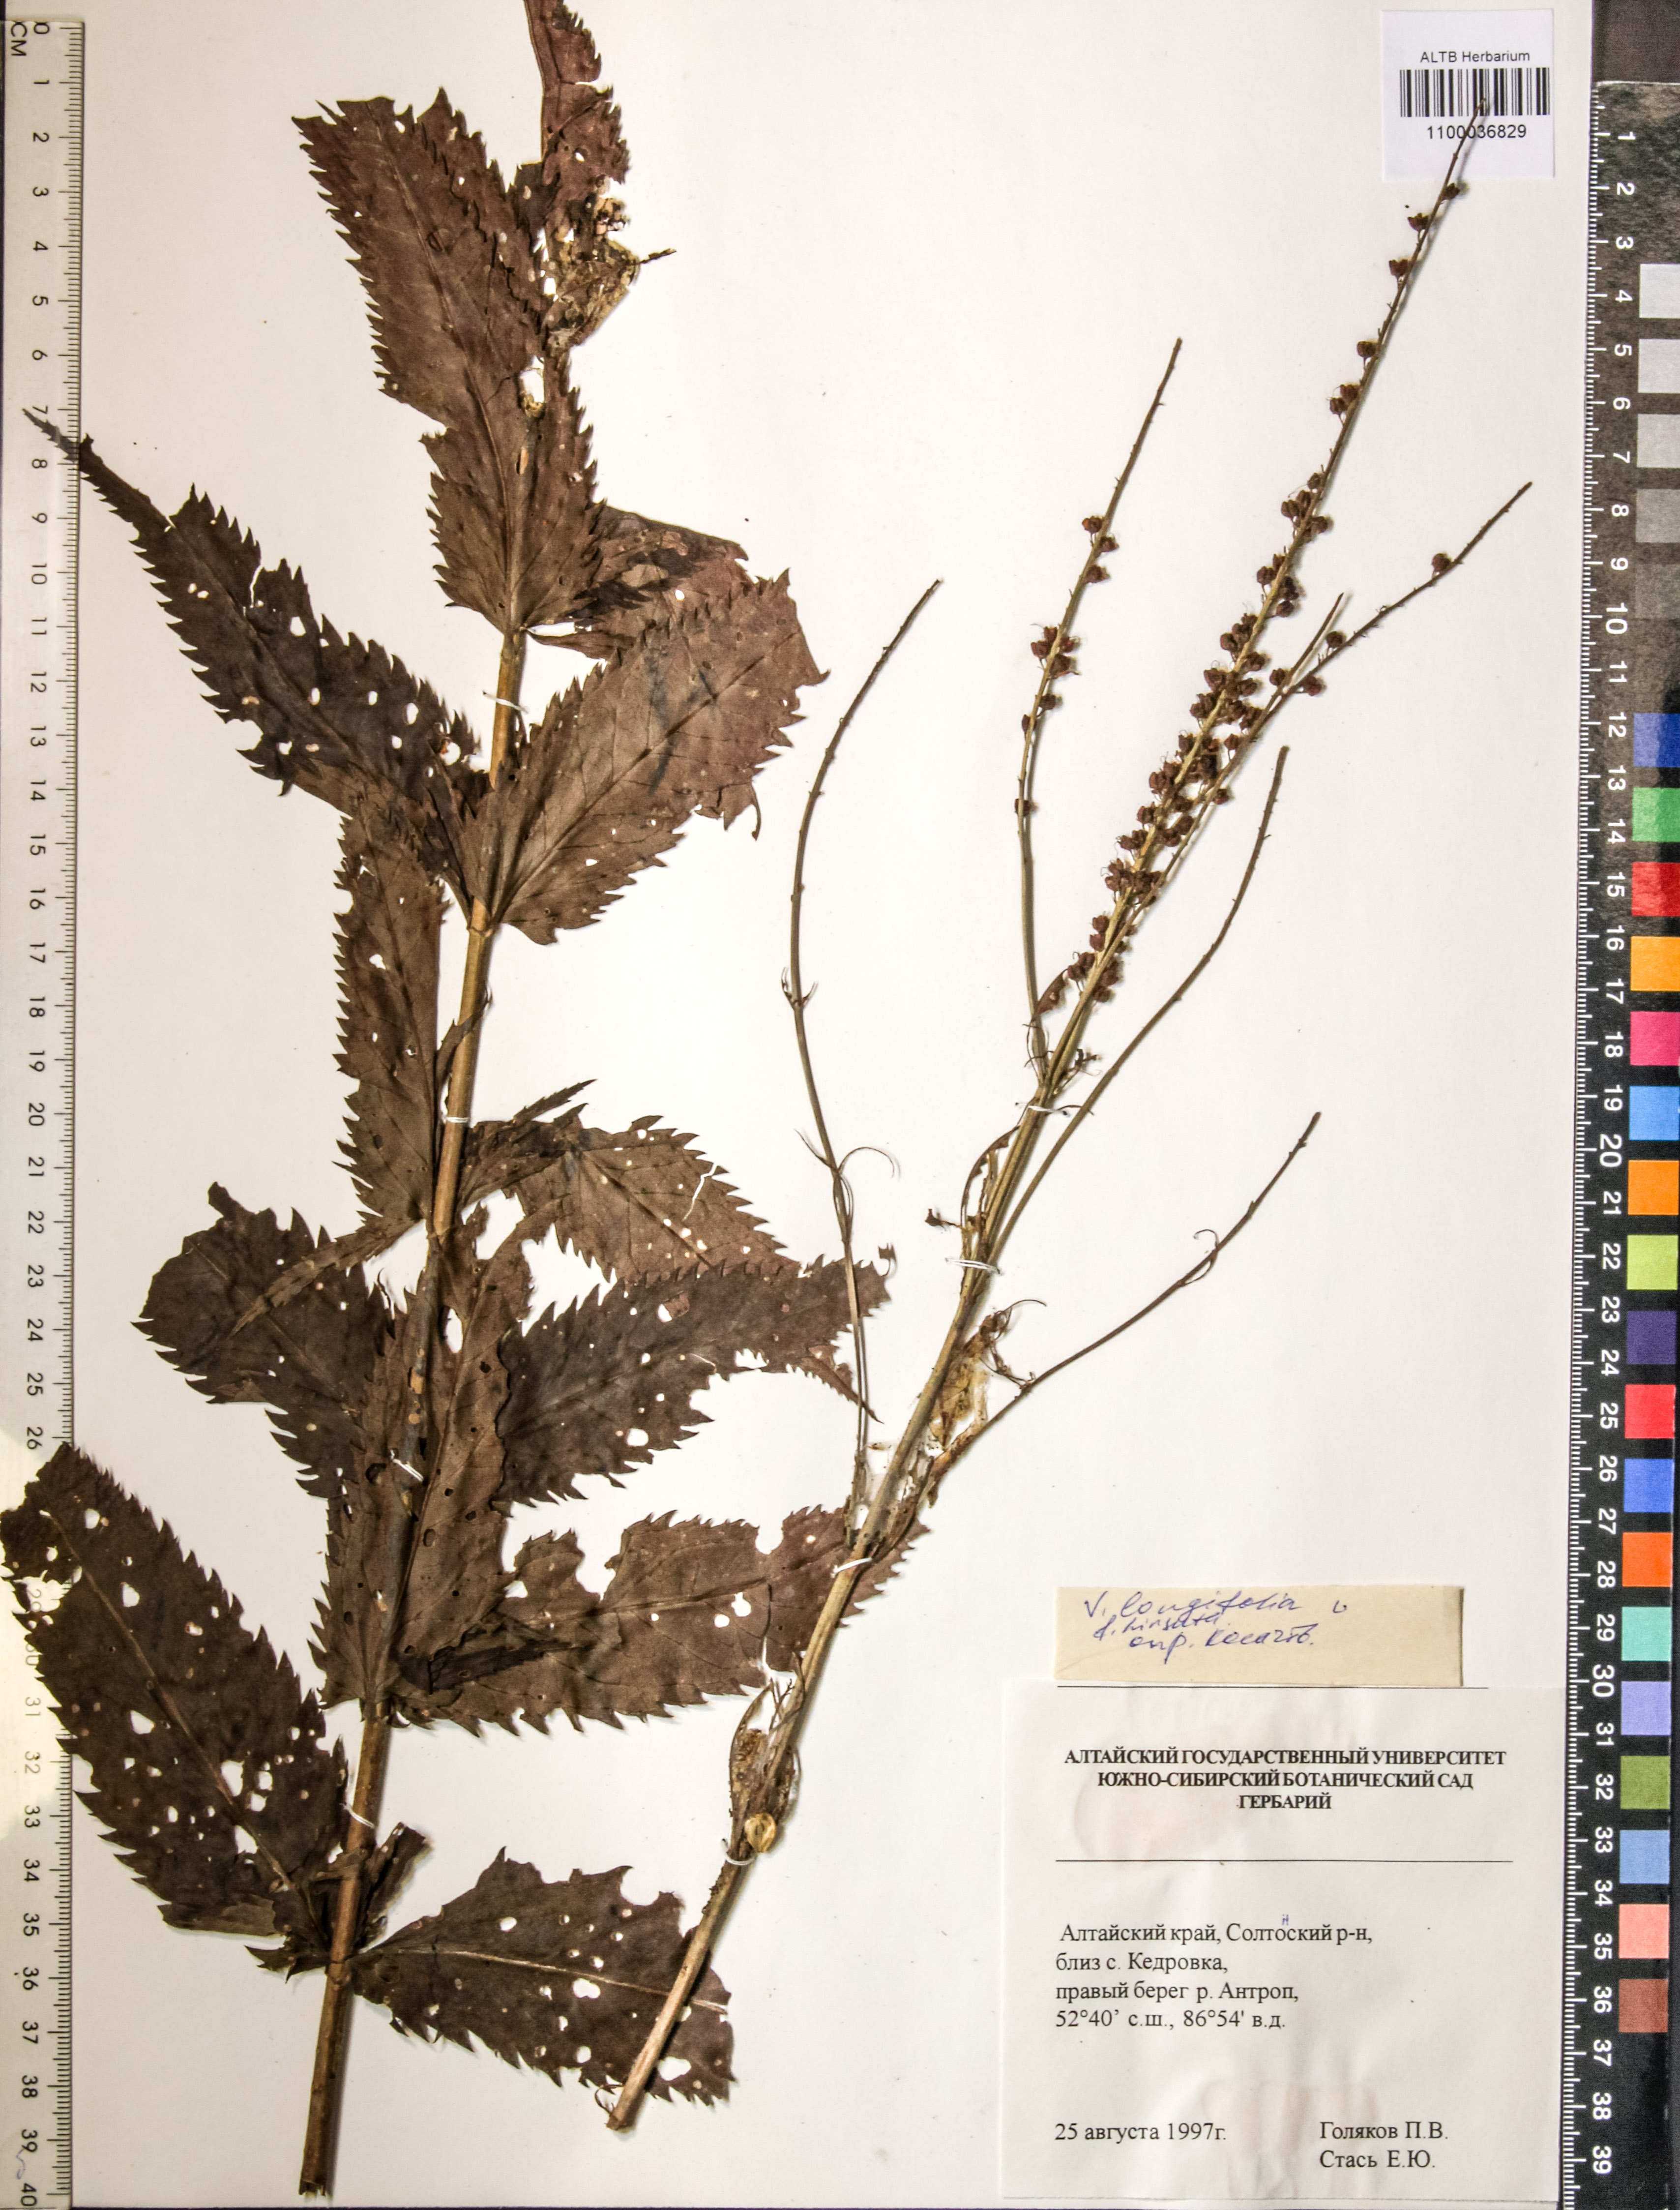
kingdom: Plantae
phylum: Tracheophyta
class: Magnoliopsida
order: Lamiales
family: Plantaginaceae
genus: Veronica
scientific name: Veronica longifolia
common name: Garden speedwell
